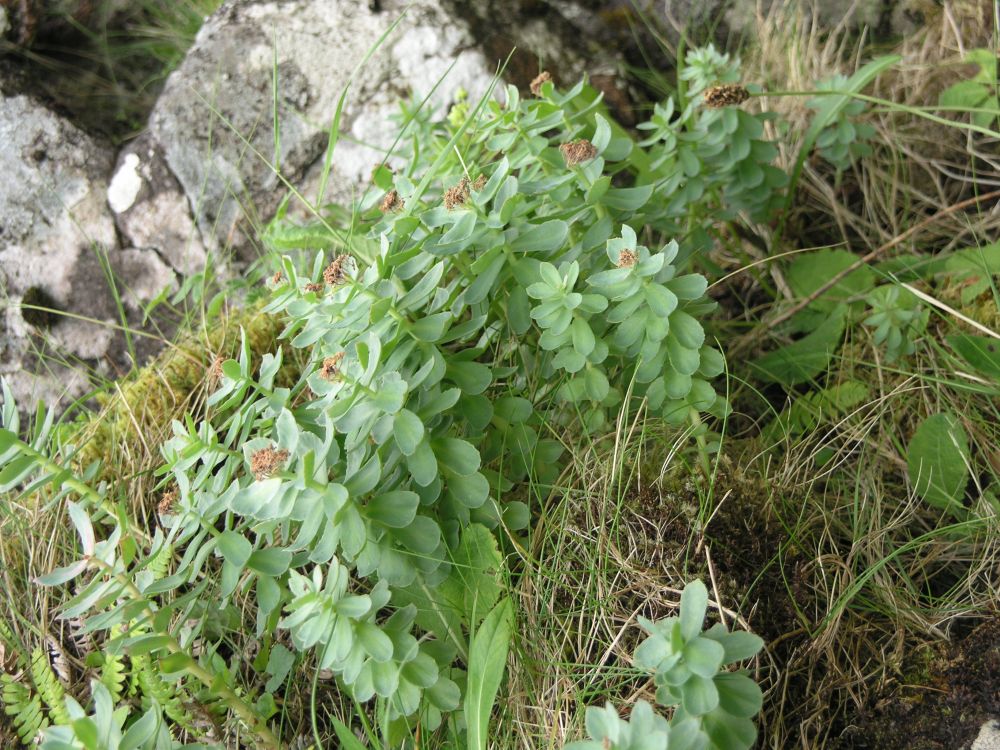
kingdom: Plantae
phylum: Tracheophyta
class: Magnoliopsida
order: Saxifragales
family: Crassulaceae
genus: Rhodiola
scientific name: Rhodiola rosea
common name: Roseroot
